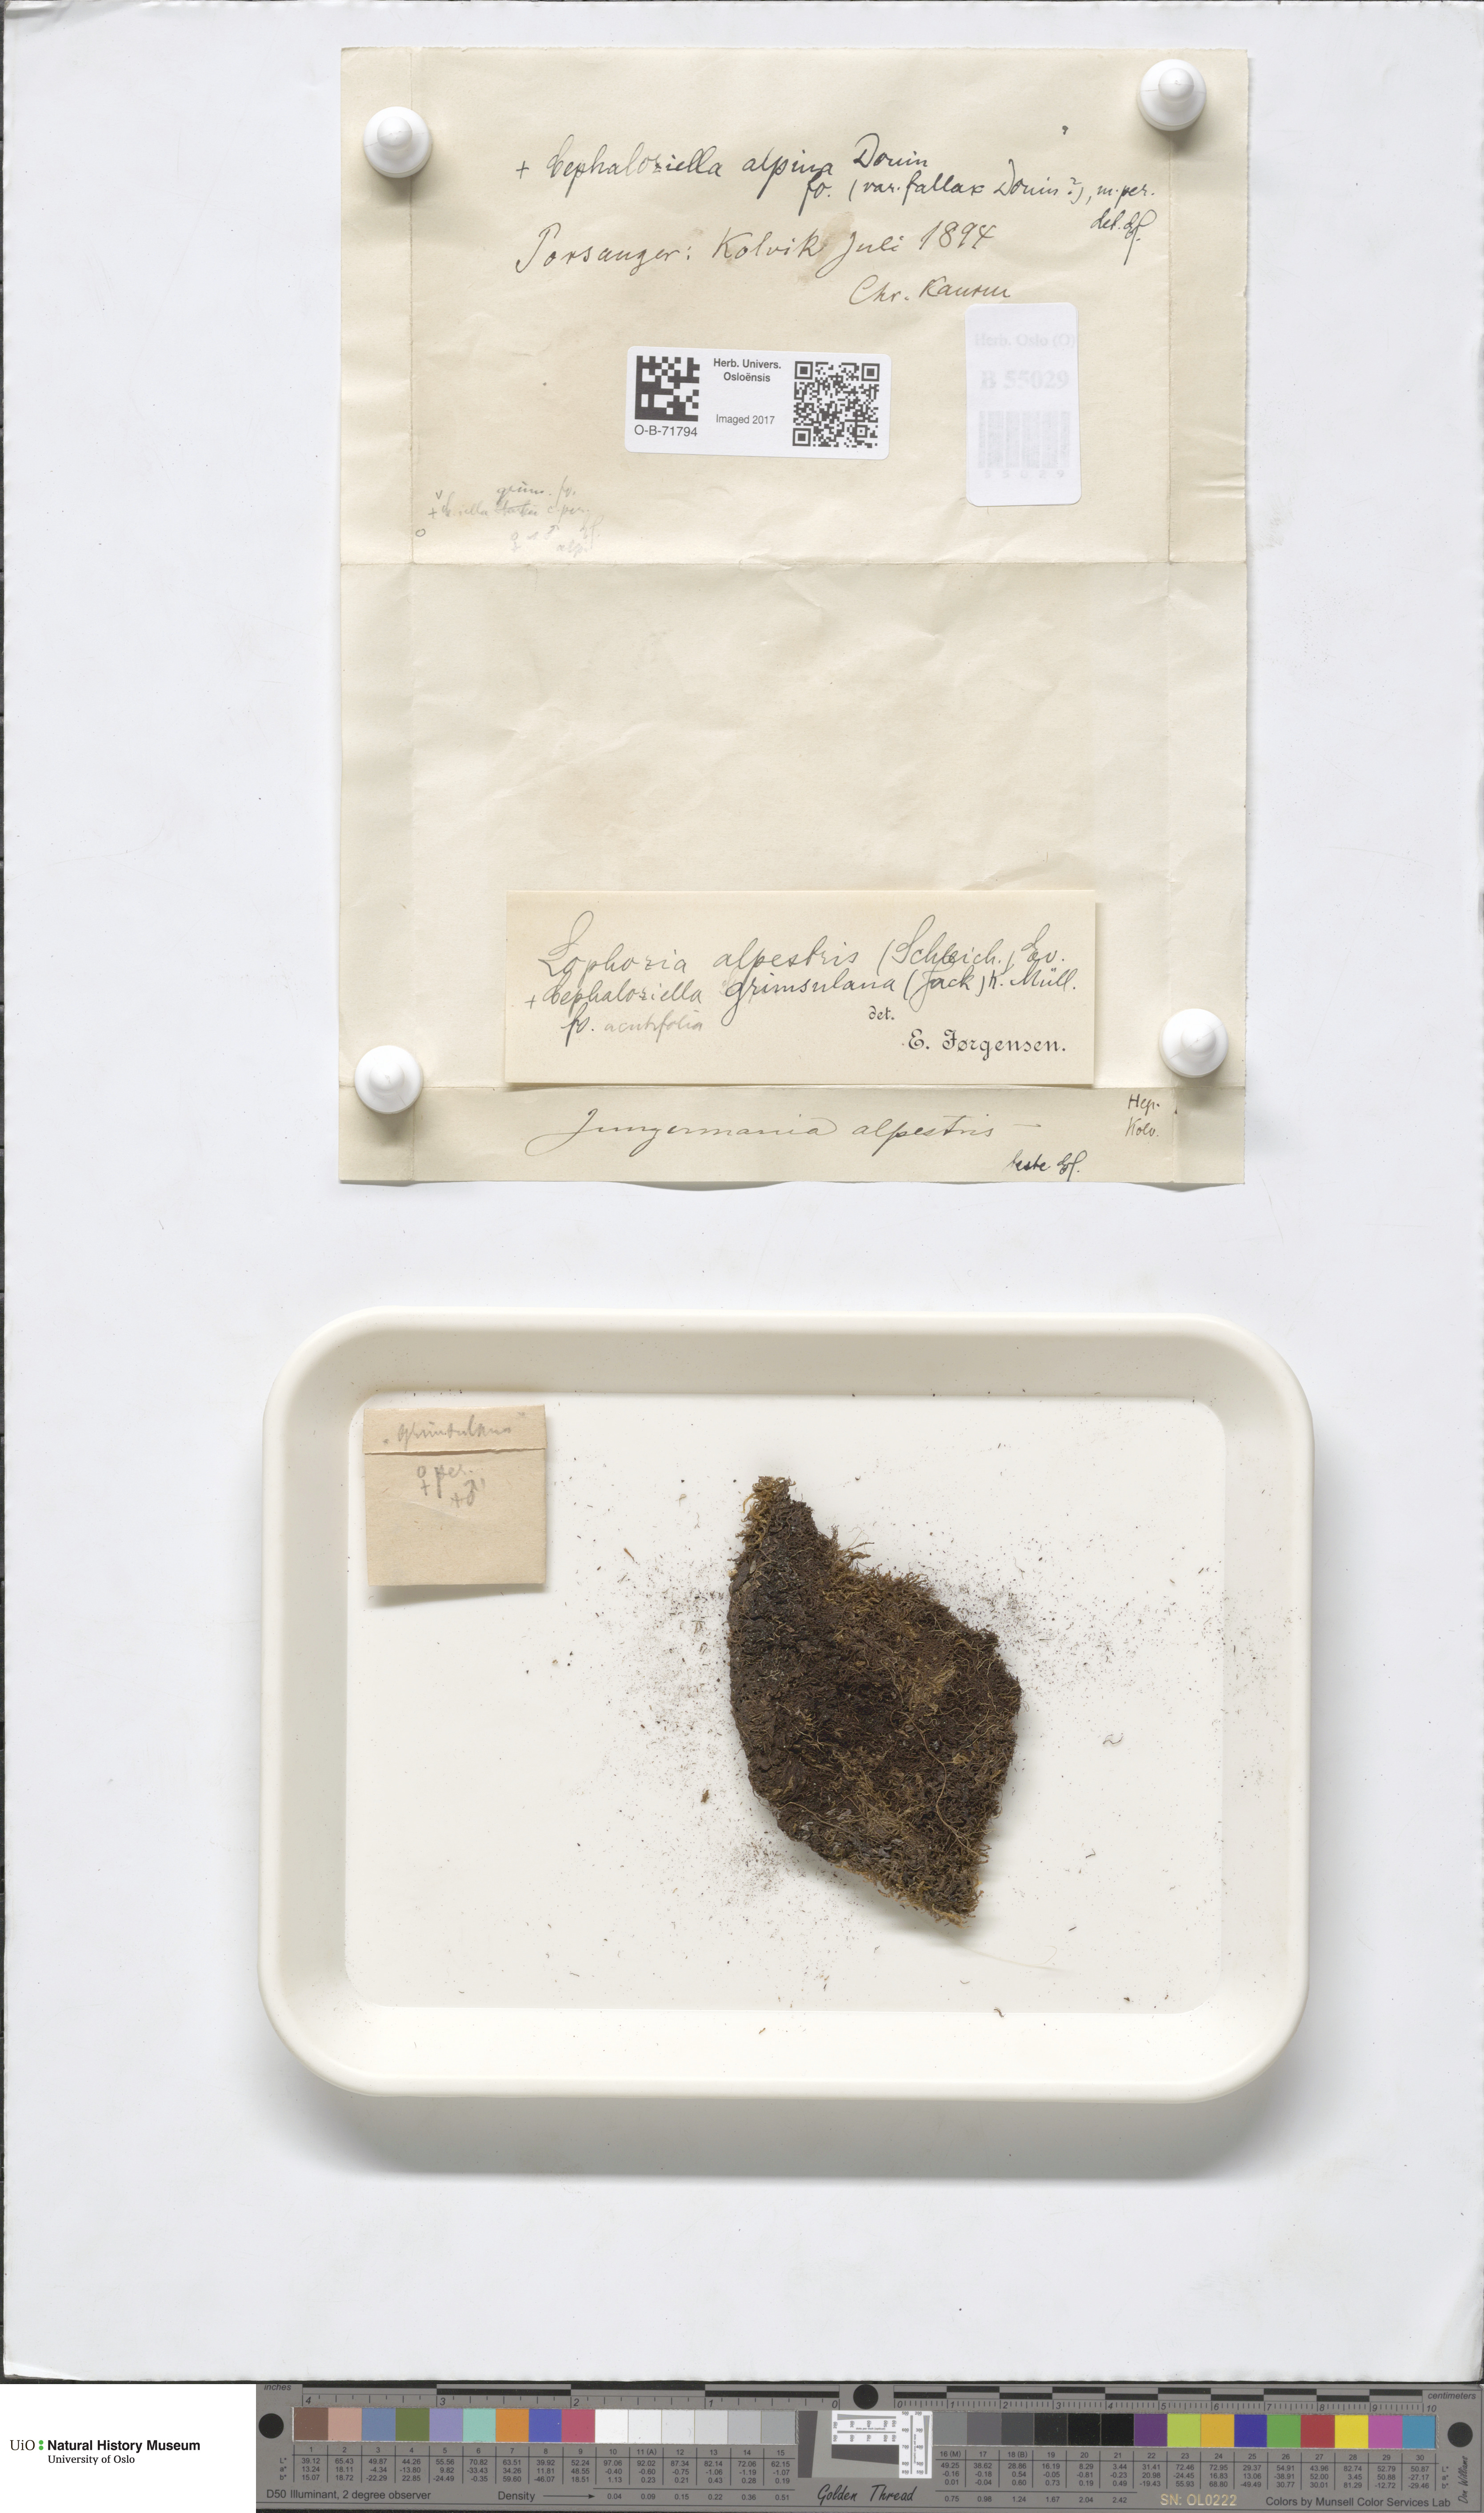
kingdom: Plantae
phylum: Marchantiophyta
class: Jungermanniopsida
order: Jungermanniales
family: Cephaloziellaceae
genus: Cephaloziella
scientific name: Cephaloziella varians
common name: Arctic threadwort
